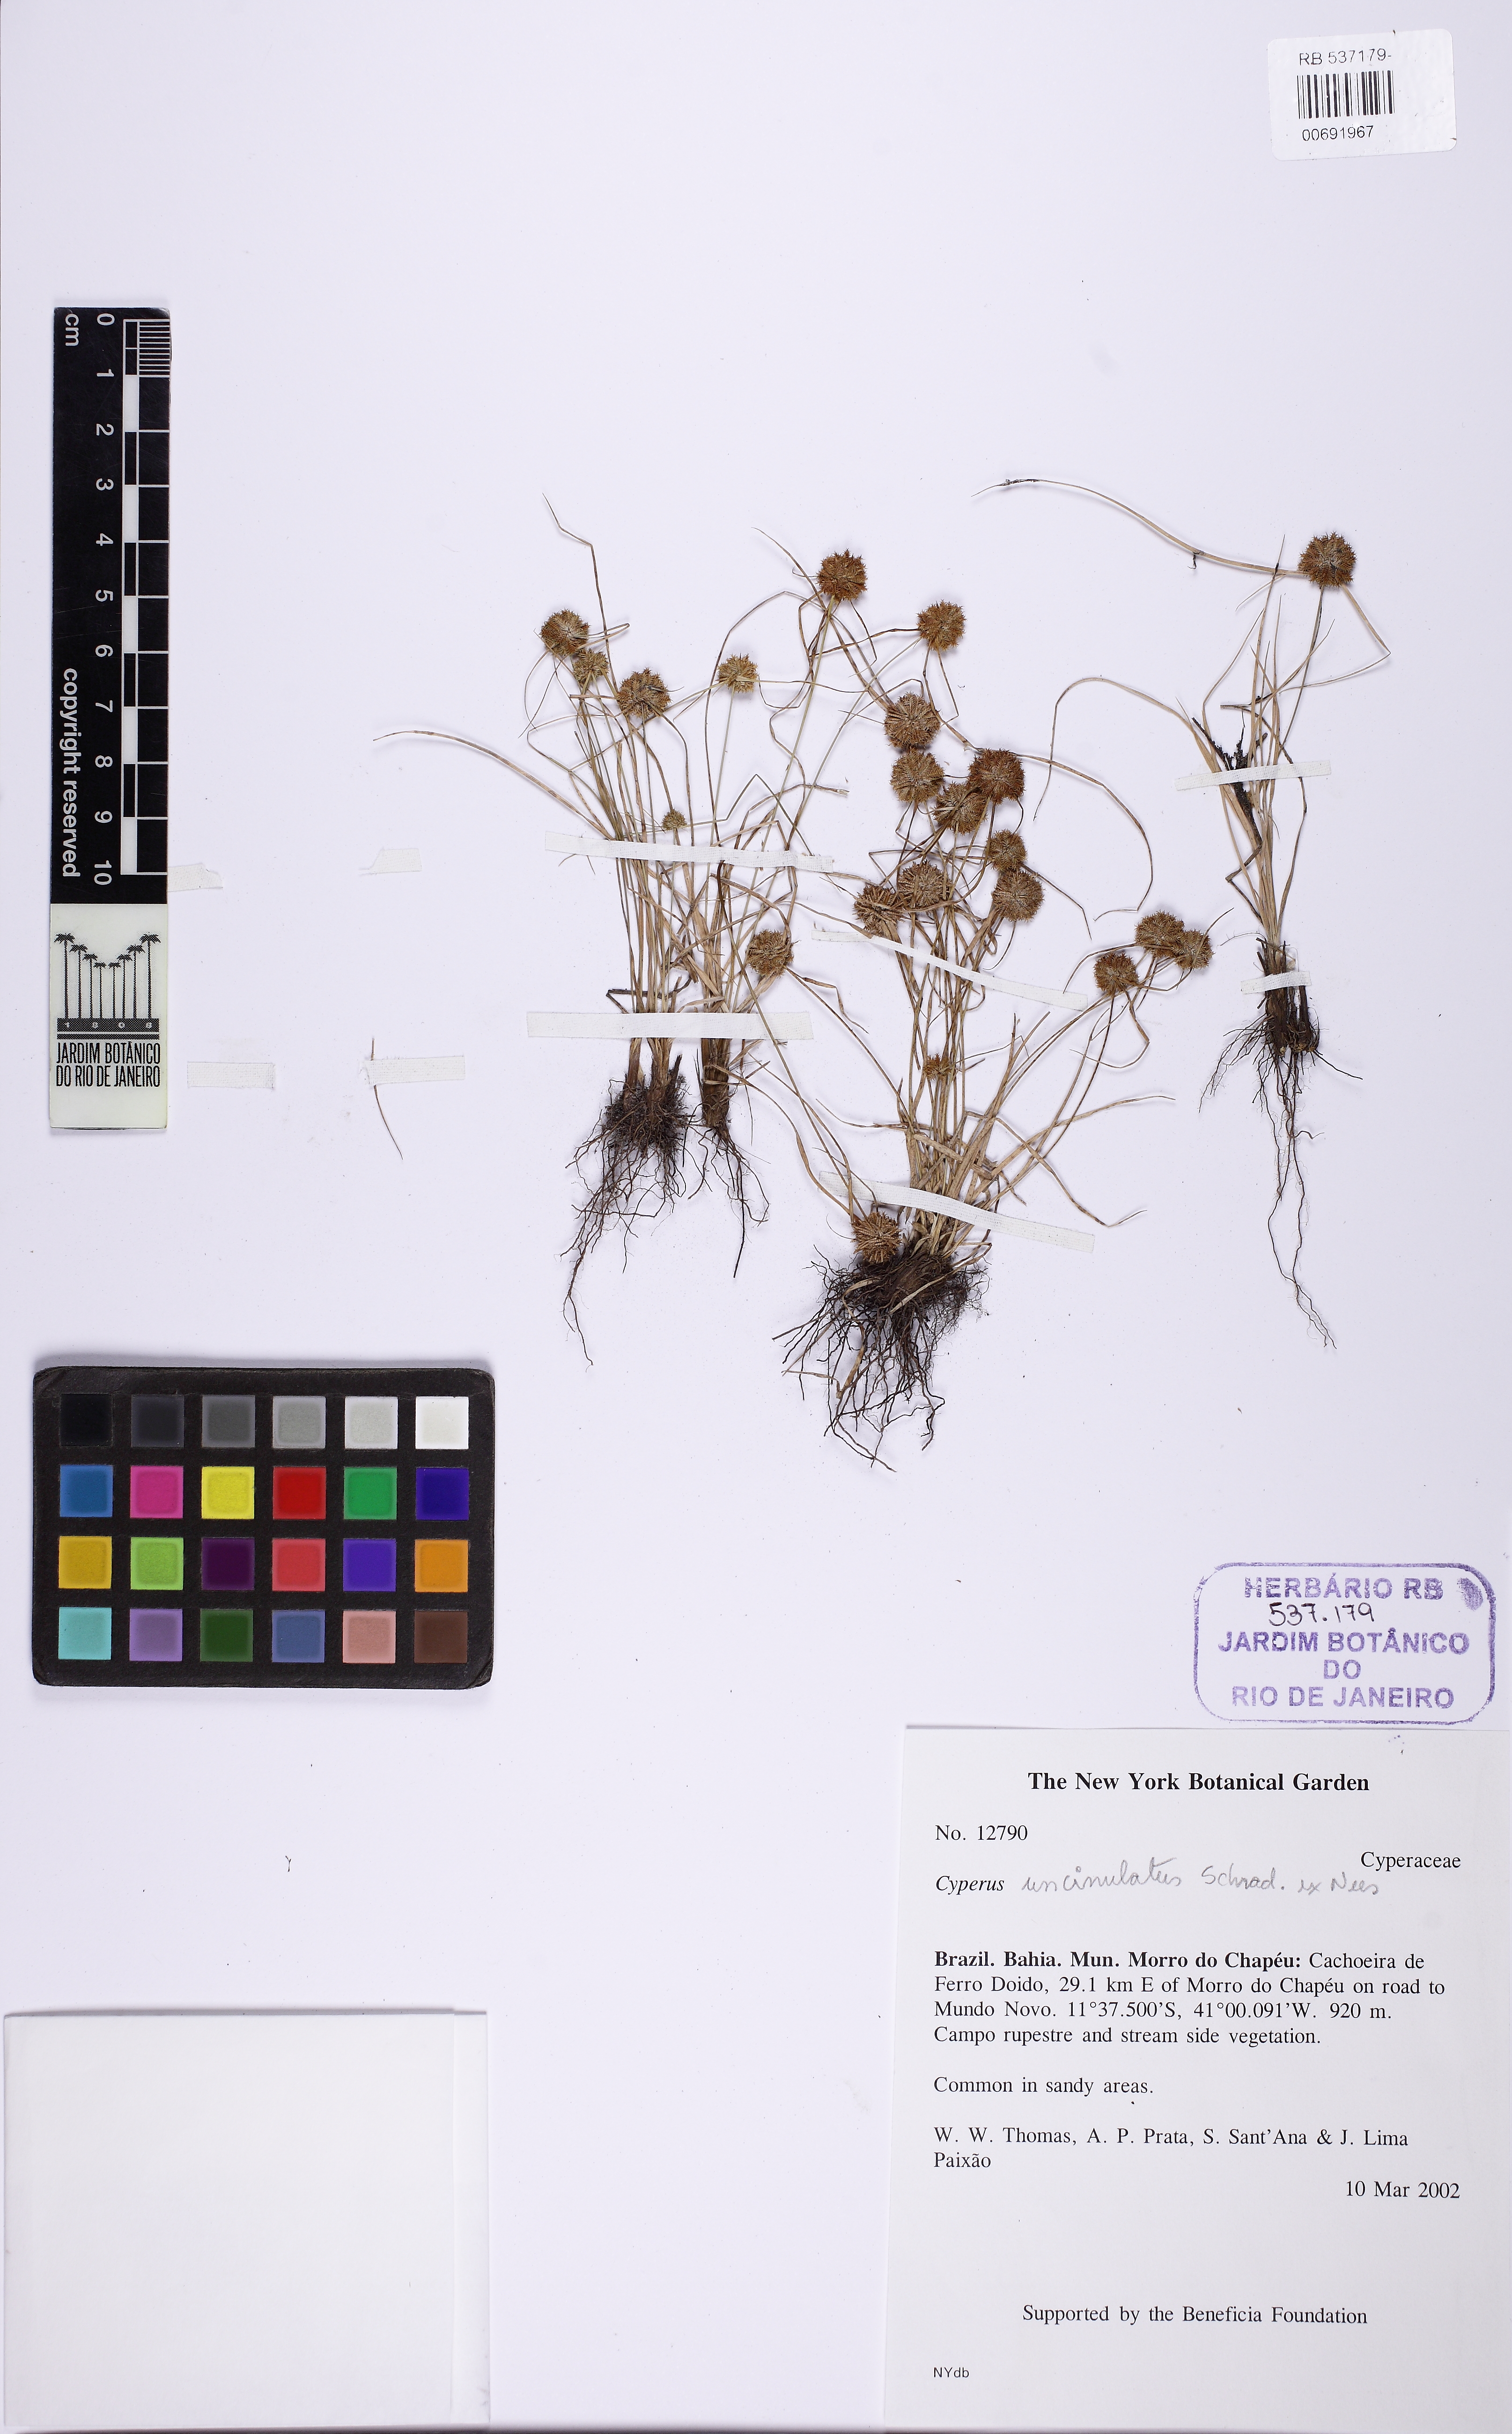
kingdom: Plantae
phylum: Tracheophyta
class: Liliopsida
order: Poales
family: Cyperaceae
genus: Cyperus
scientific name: Cyperus uncinulatus
